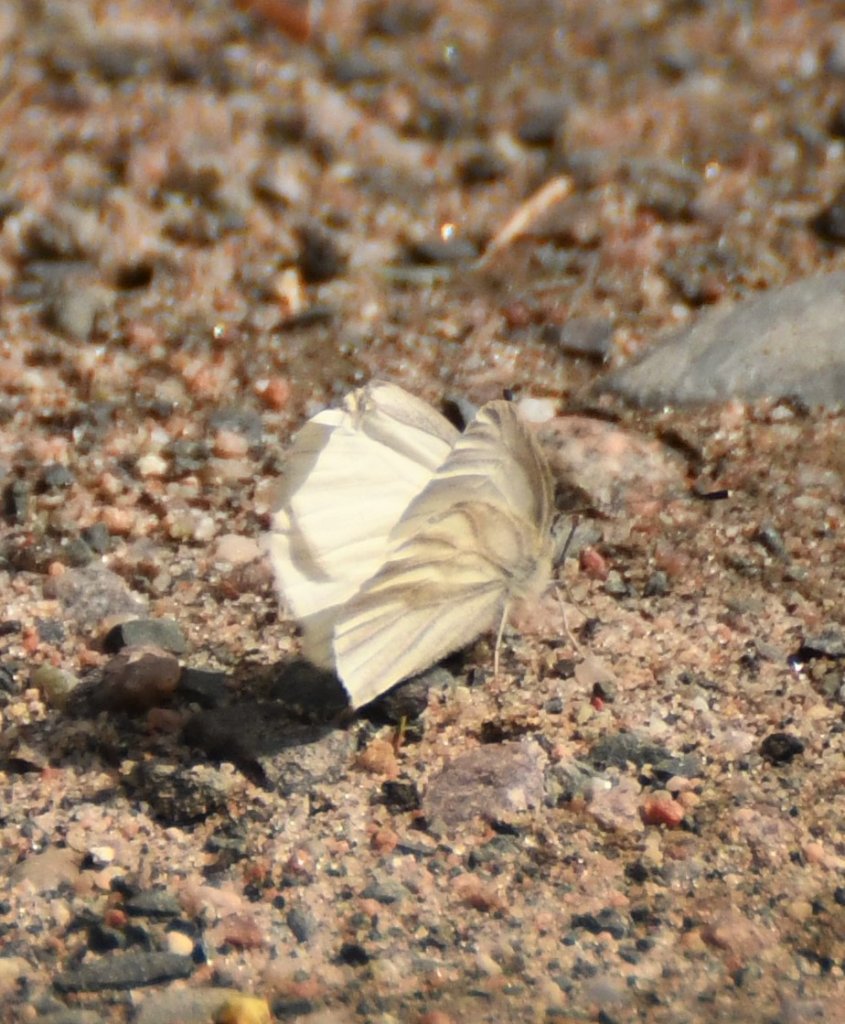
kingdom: Animalia
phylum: Arthropoda
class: Insecta
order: Lepidoptera
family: Pieridae
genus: Pieris
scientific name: Pieris virginiensis
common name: West Virginia White
